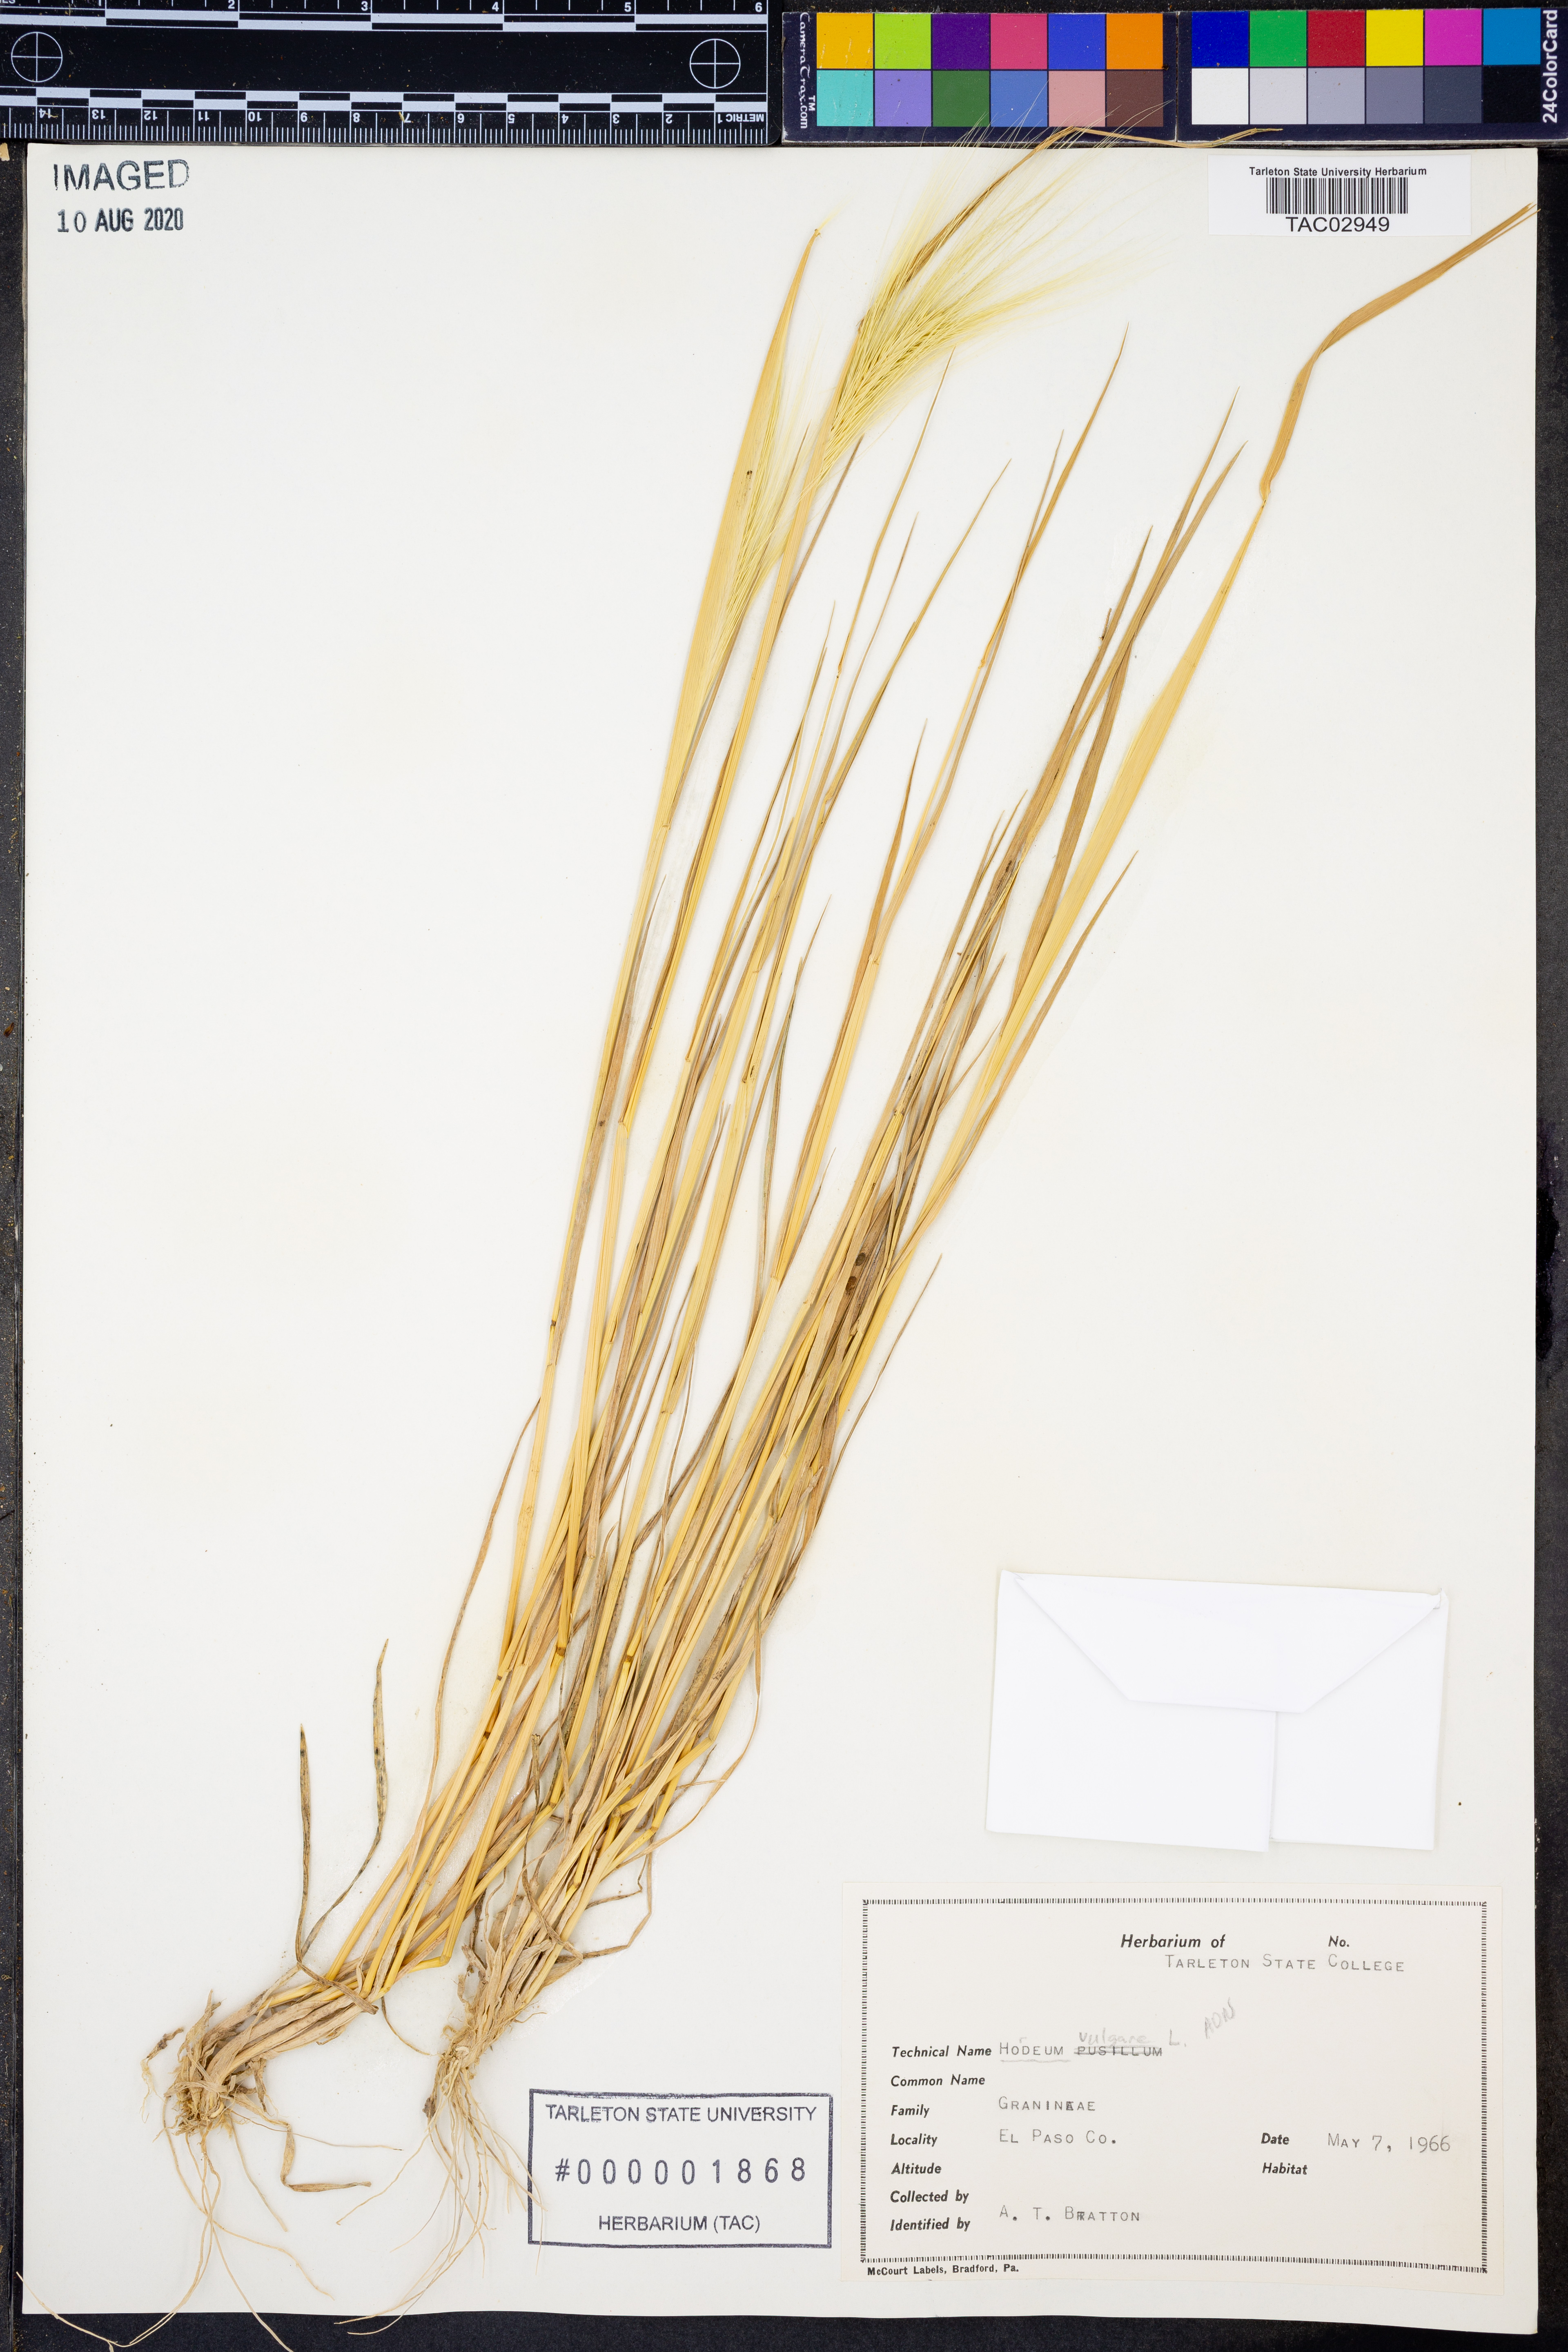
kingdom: Plantae
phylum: Tracheophyta
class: Liliopsida
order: Poales
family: Poaceae
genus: Hordeum
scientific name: Hordeum vulgare
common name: Common barley
